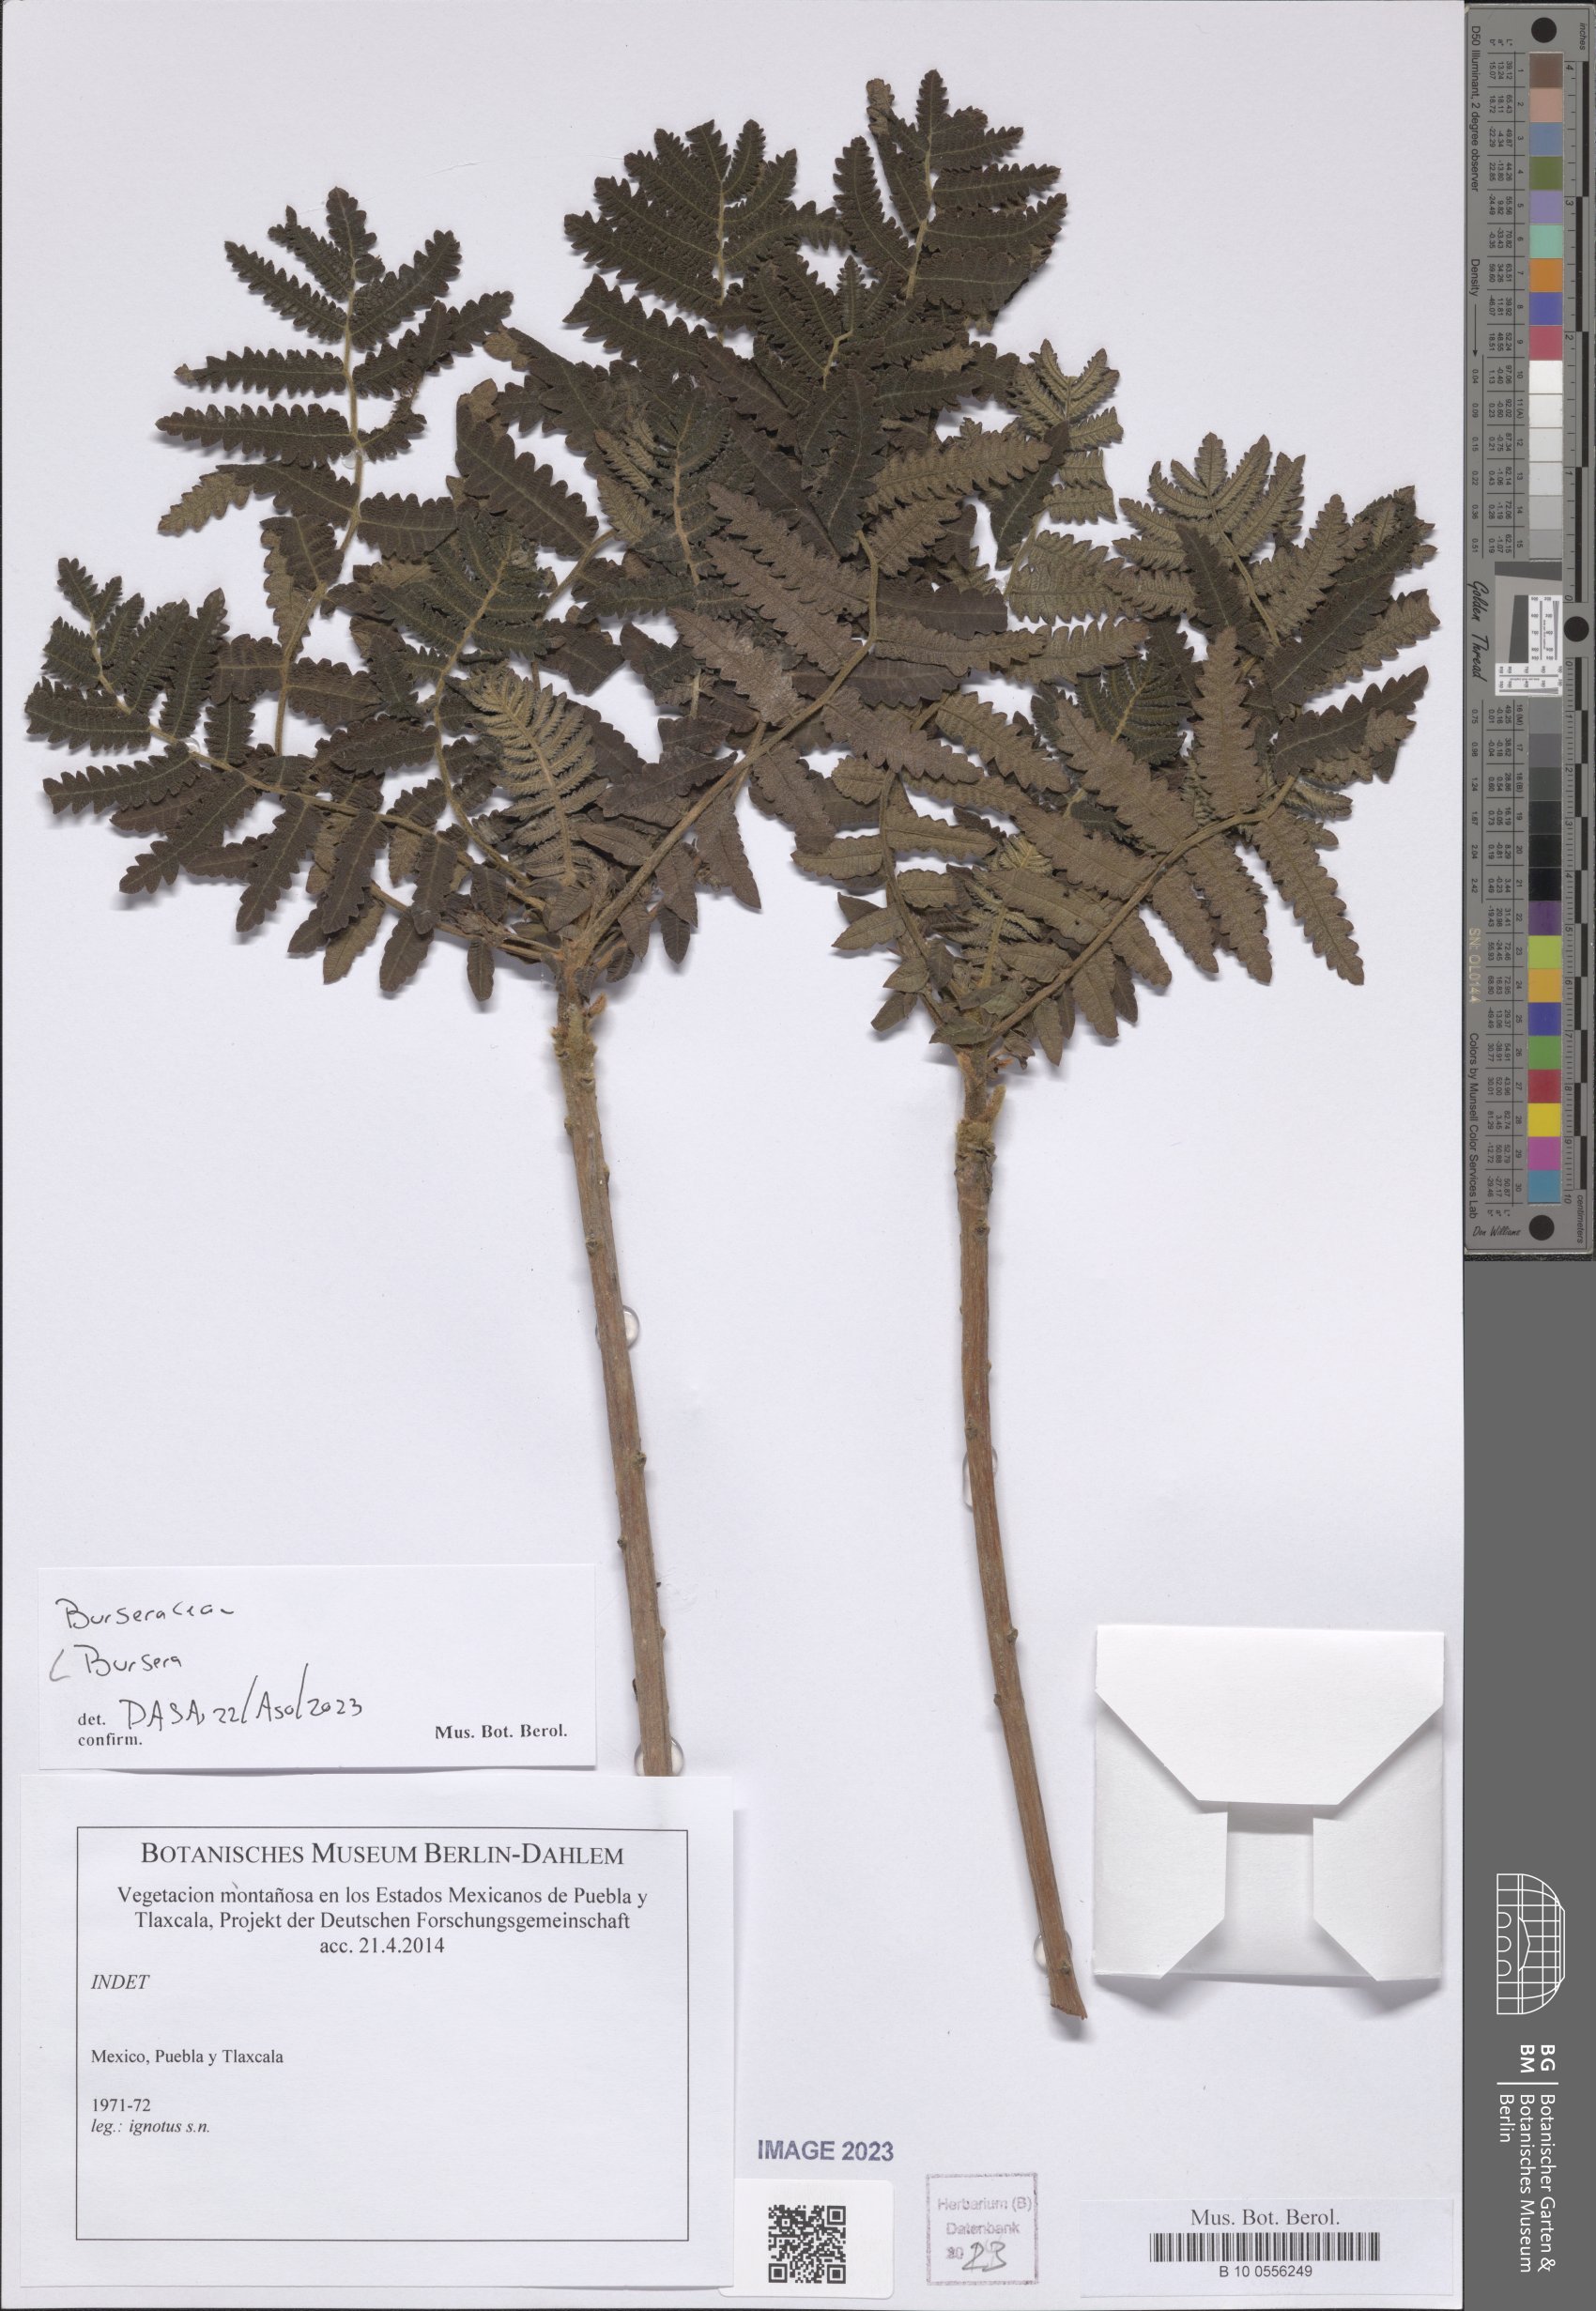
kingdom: Plantae
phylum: Tracheophyta
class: Magnoliopsida
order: Sapindales
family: Burseraceae
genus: Bursera
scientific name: Bursera
